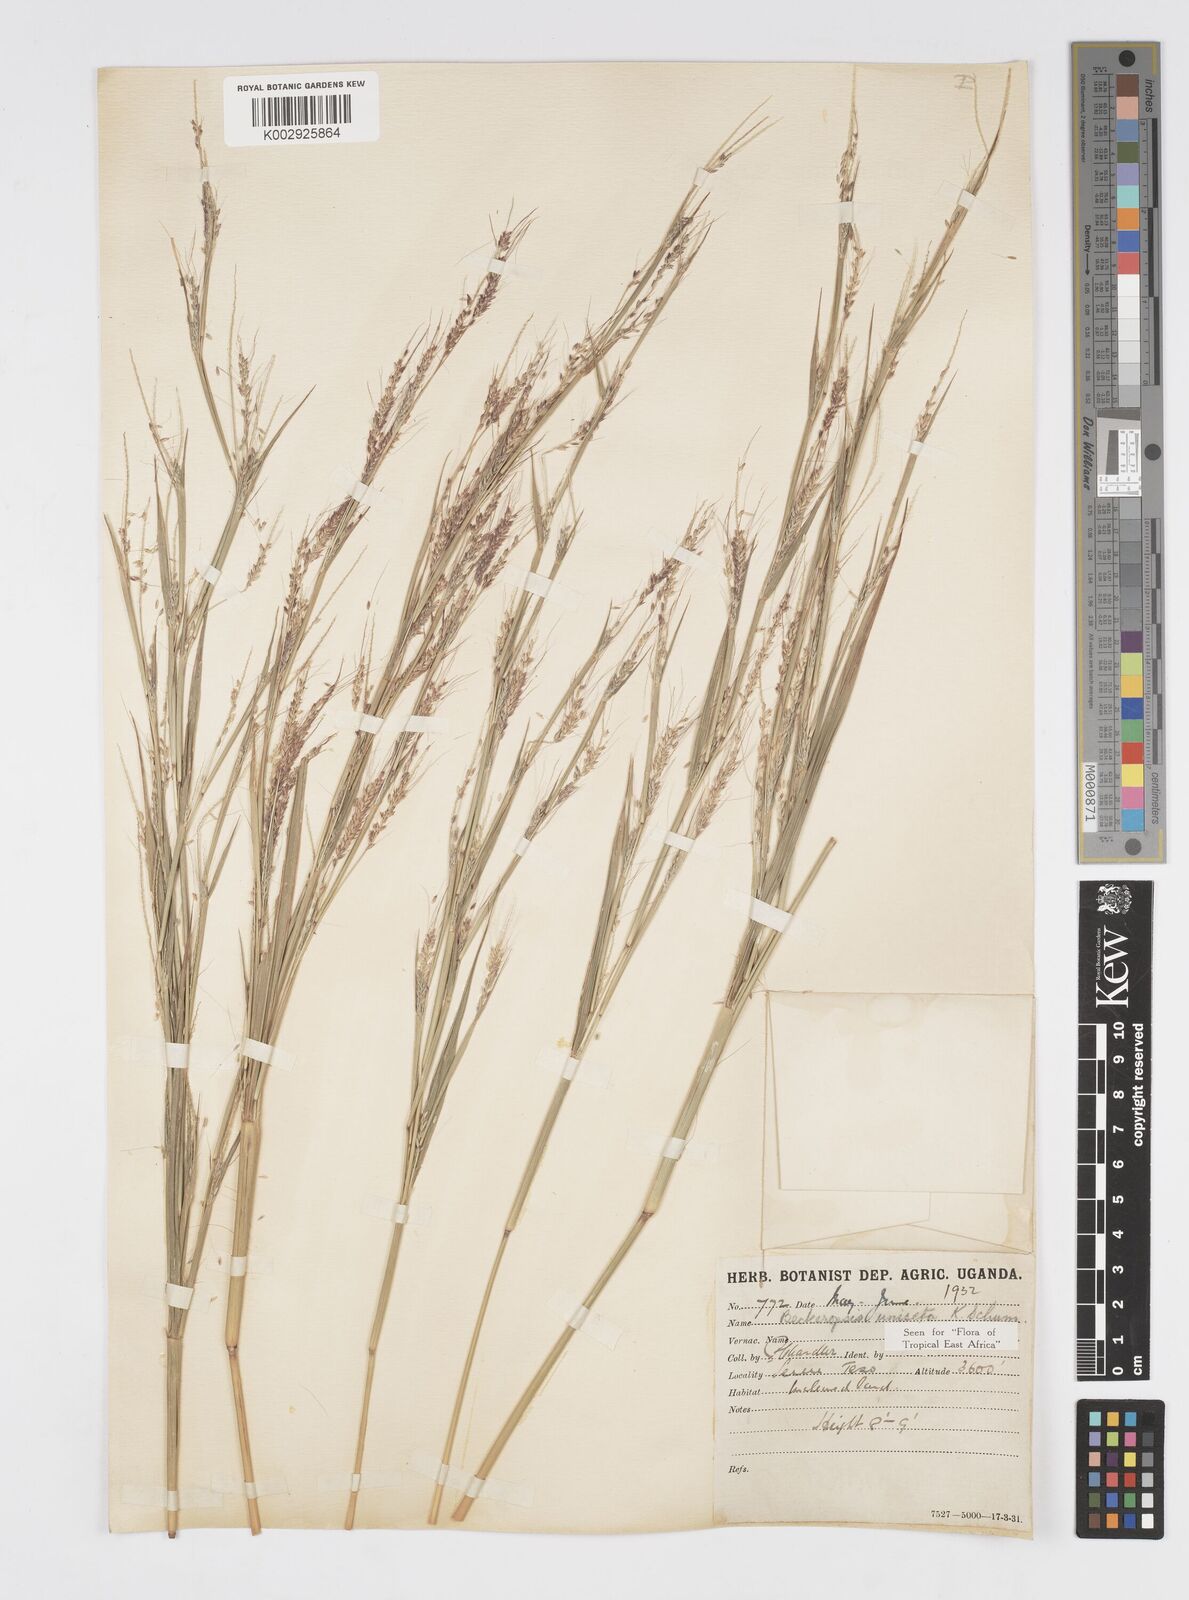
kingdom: Plantae
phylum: Tracheophyta
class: Liliopsida
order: Poales
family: Poaceae
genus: Cenchrus
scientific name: Cenchrus unisetus
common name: Natal grass
